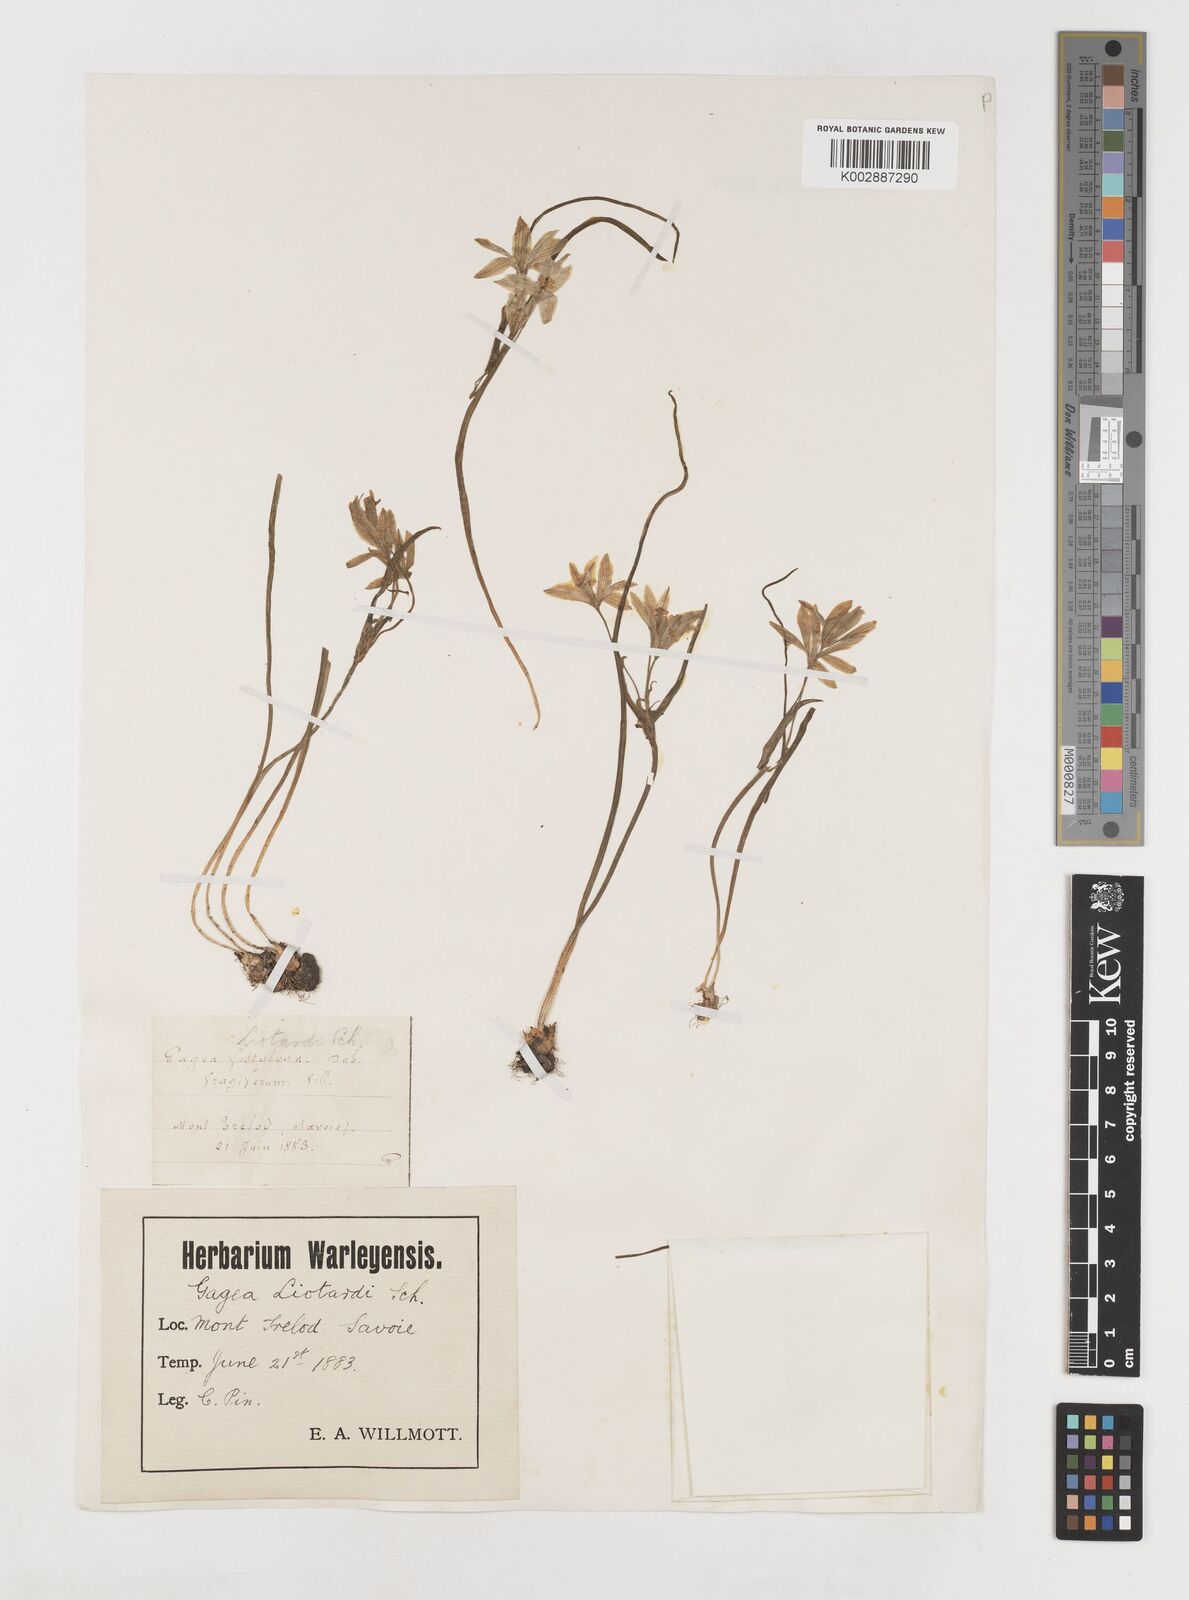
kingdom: Plantae
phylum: Tracheophyta
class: Liliopsida
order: Liliales
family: Liliaceae
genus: Gagea
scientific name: Gagea bohemica
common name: Early star-of-bethlehem
